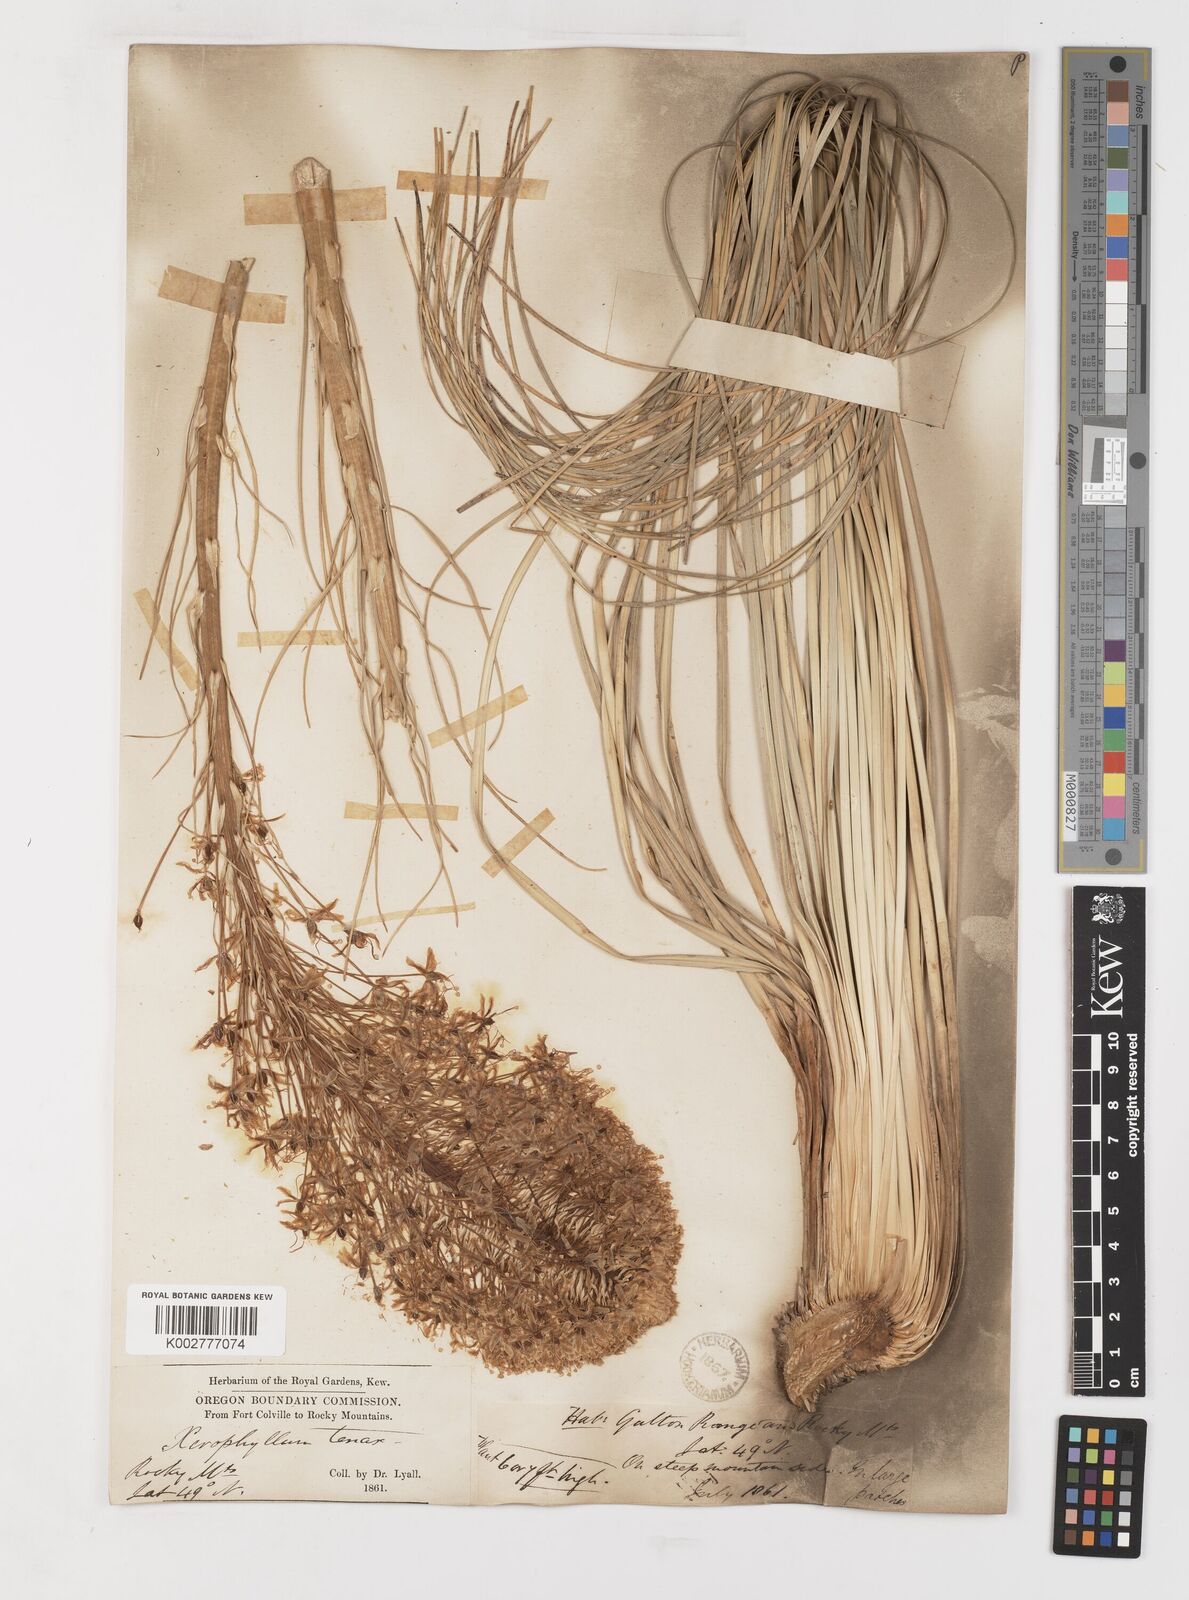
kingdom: Plantae
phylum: Tracheophyta
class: Liliopsida
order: Liliales
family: Melanthiaceae
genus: Xerophyllum
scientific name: Xerophyllum tenax
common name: Bear-grass
